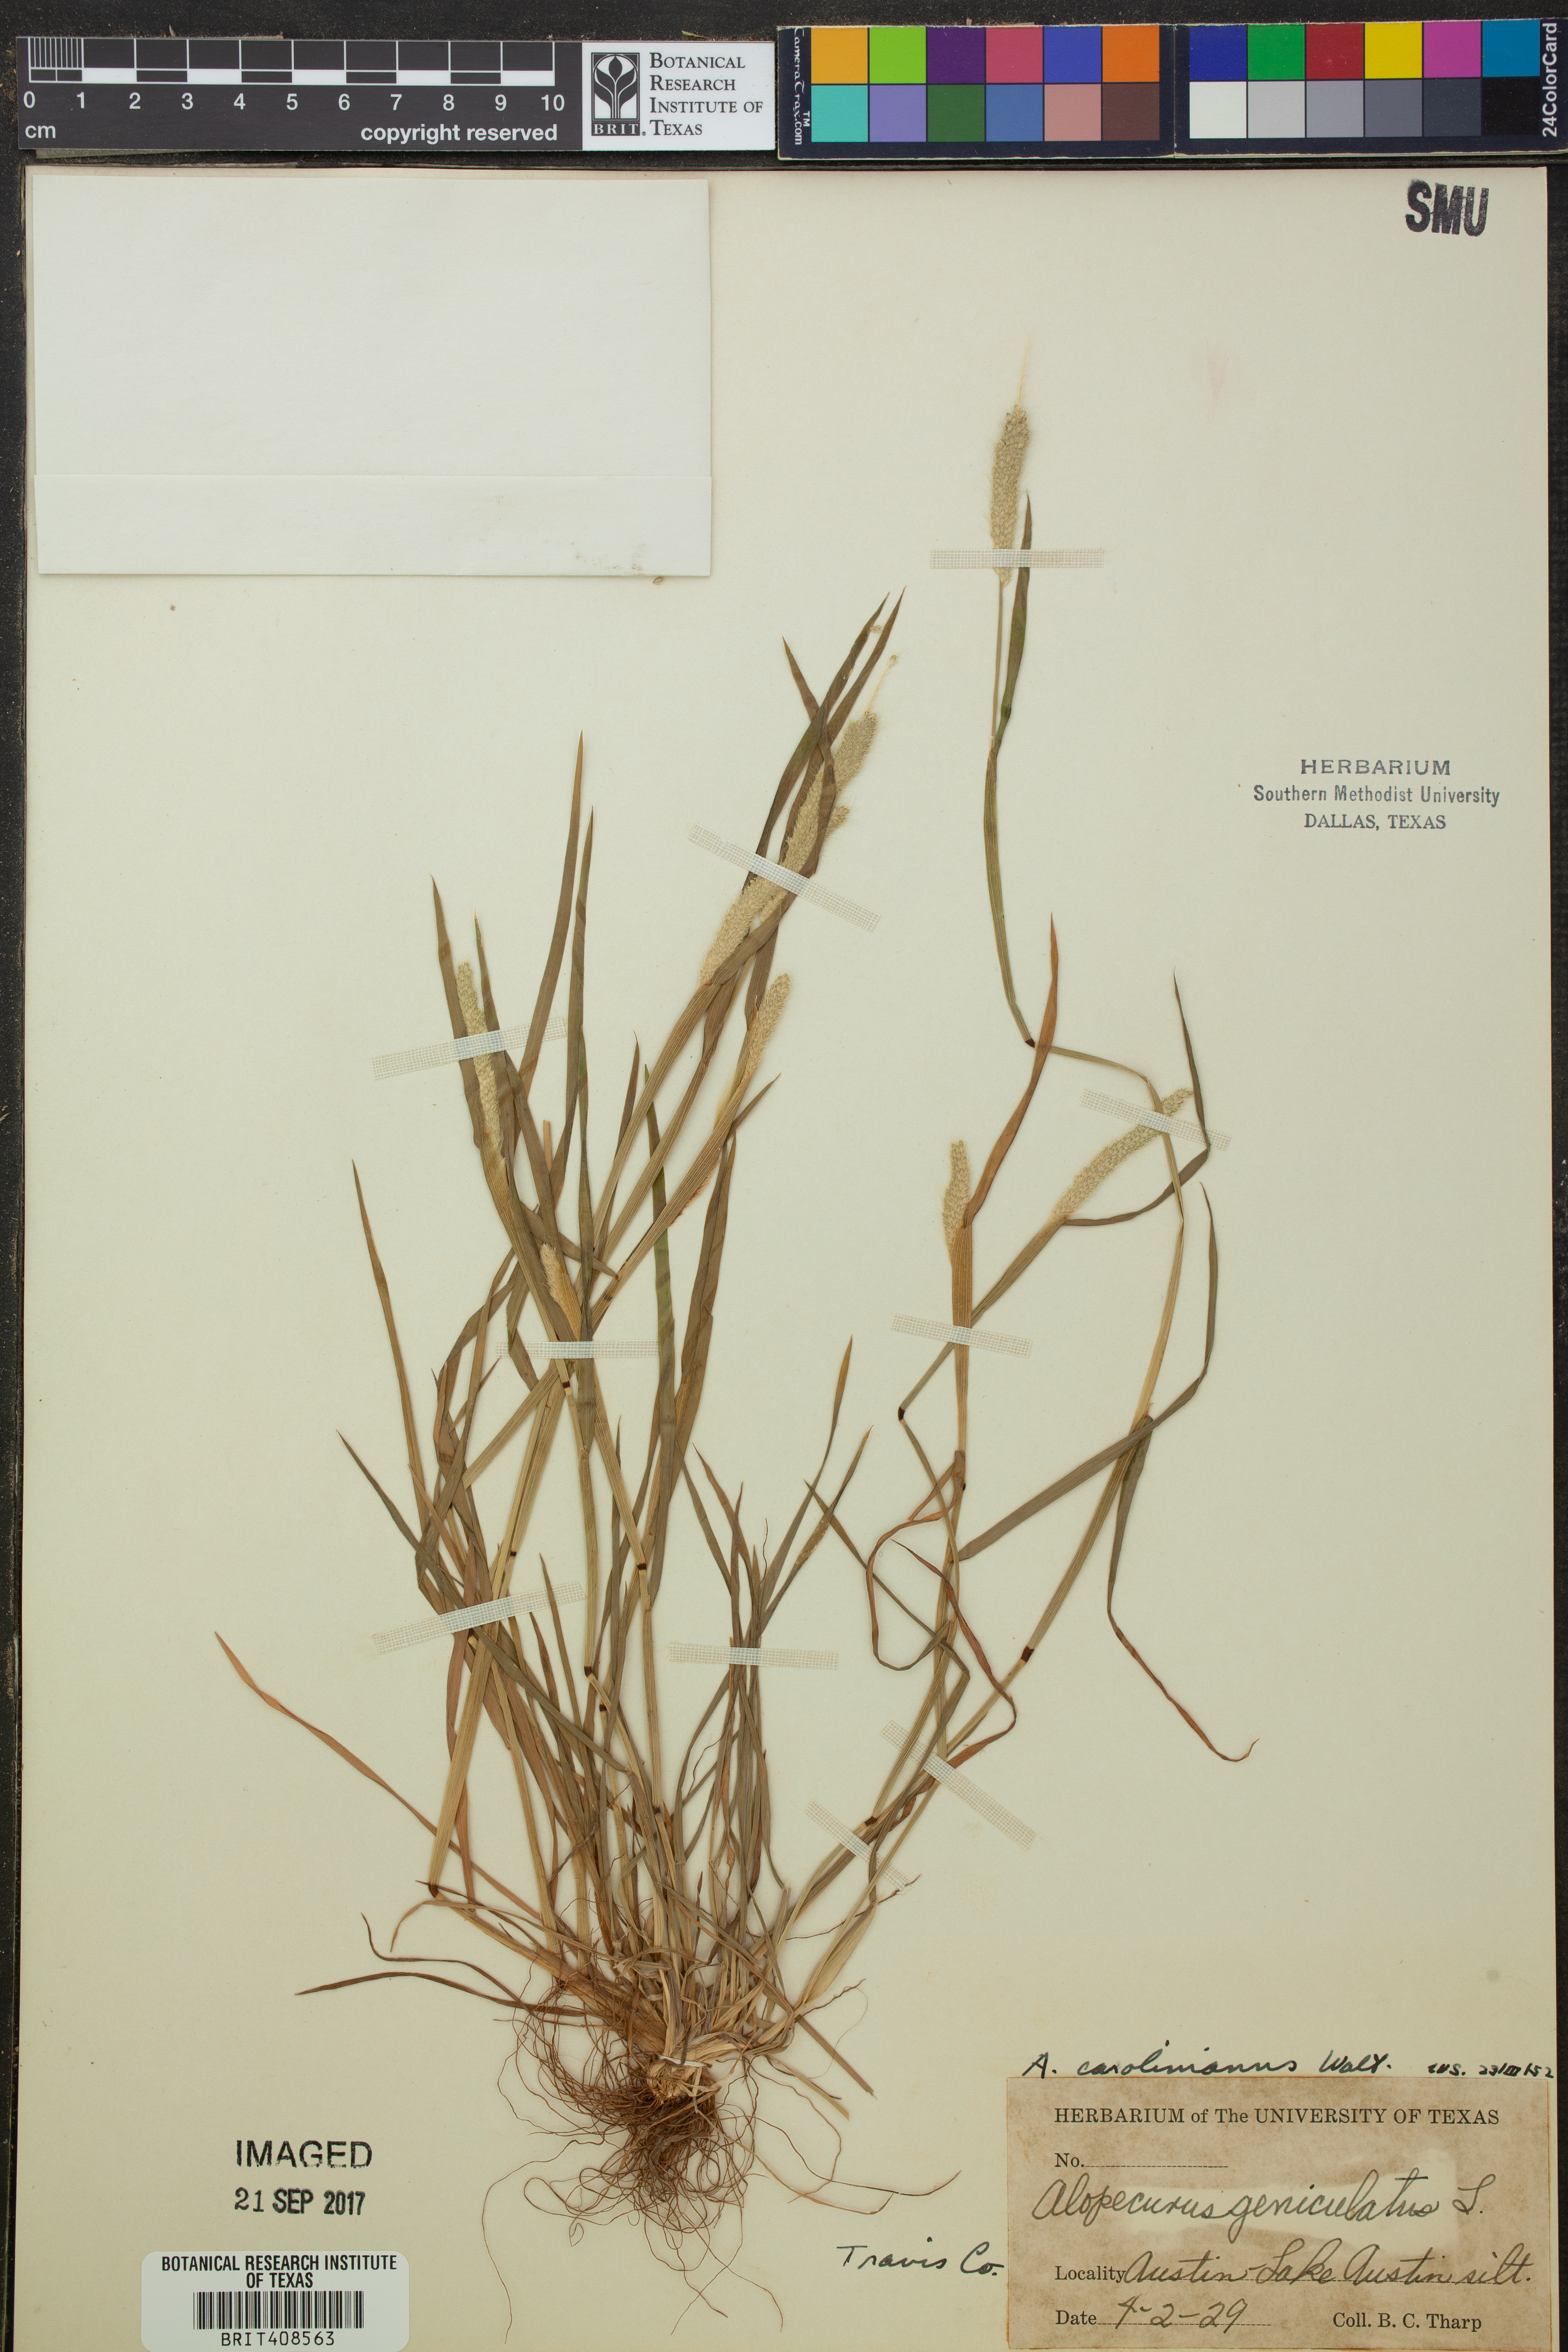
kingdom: Plantae
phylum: Tracheophyta
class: Liliopsida
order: Poales
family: Poaceae
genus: Alopecurus
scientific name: Alopecurus carolinianus
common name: Tufted foxtail
